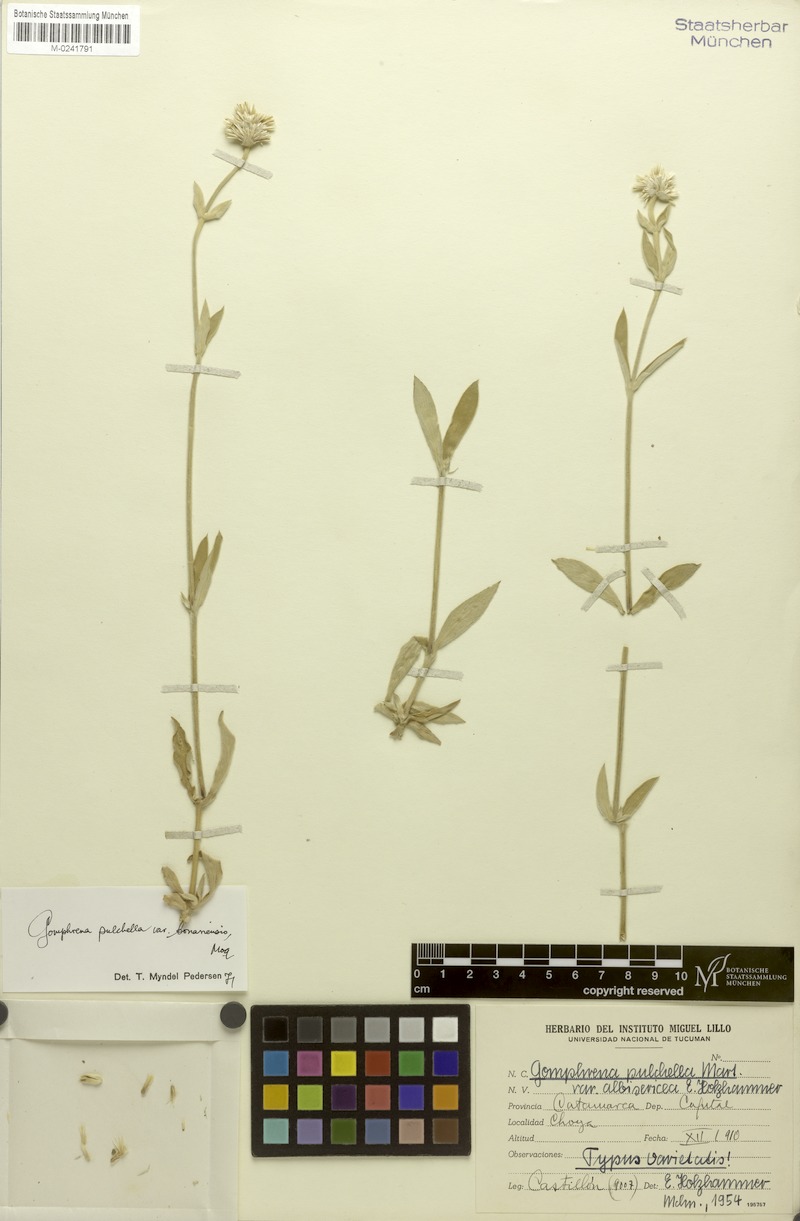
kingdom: Plantae
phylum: Tracheophyta
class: Magnoliopsida
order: Caryophyllales
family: Amaranthaceae
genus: Gomphrena
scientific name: Gomphrena pulchella
